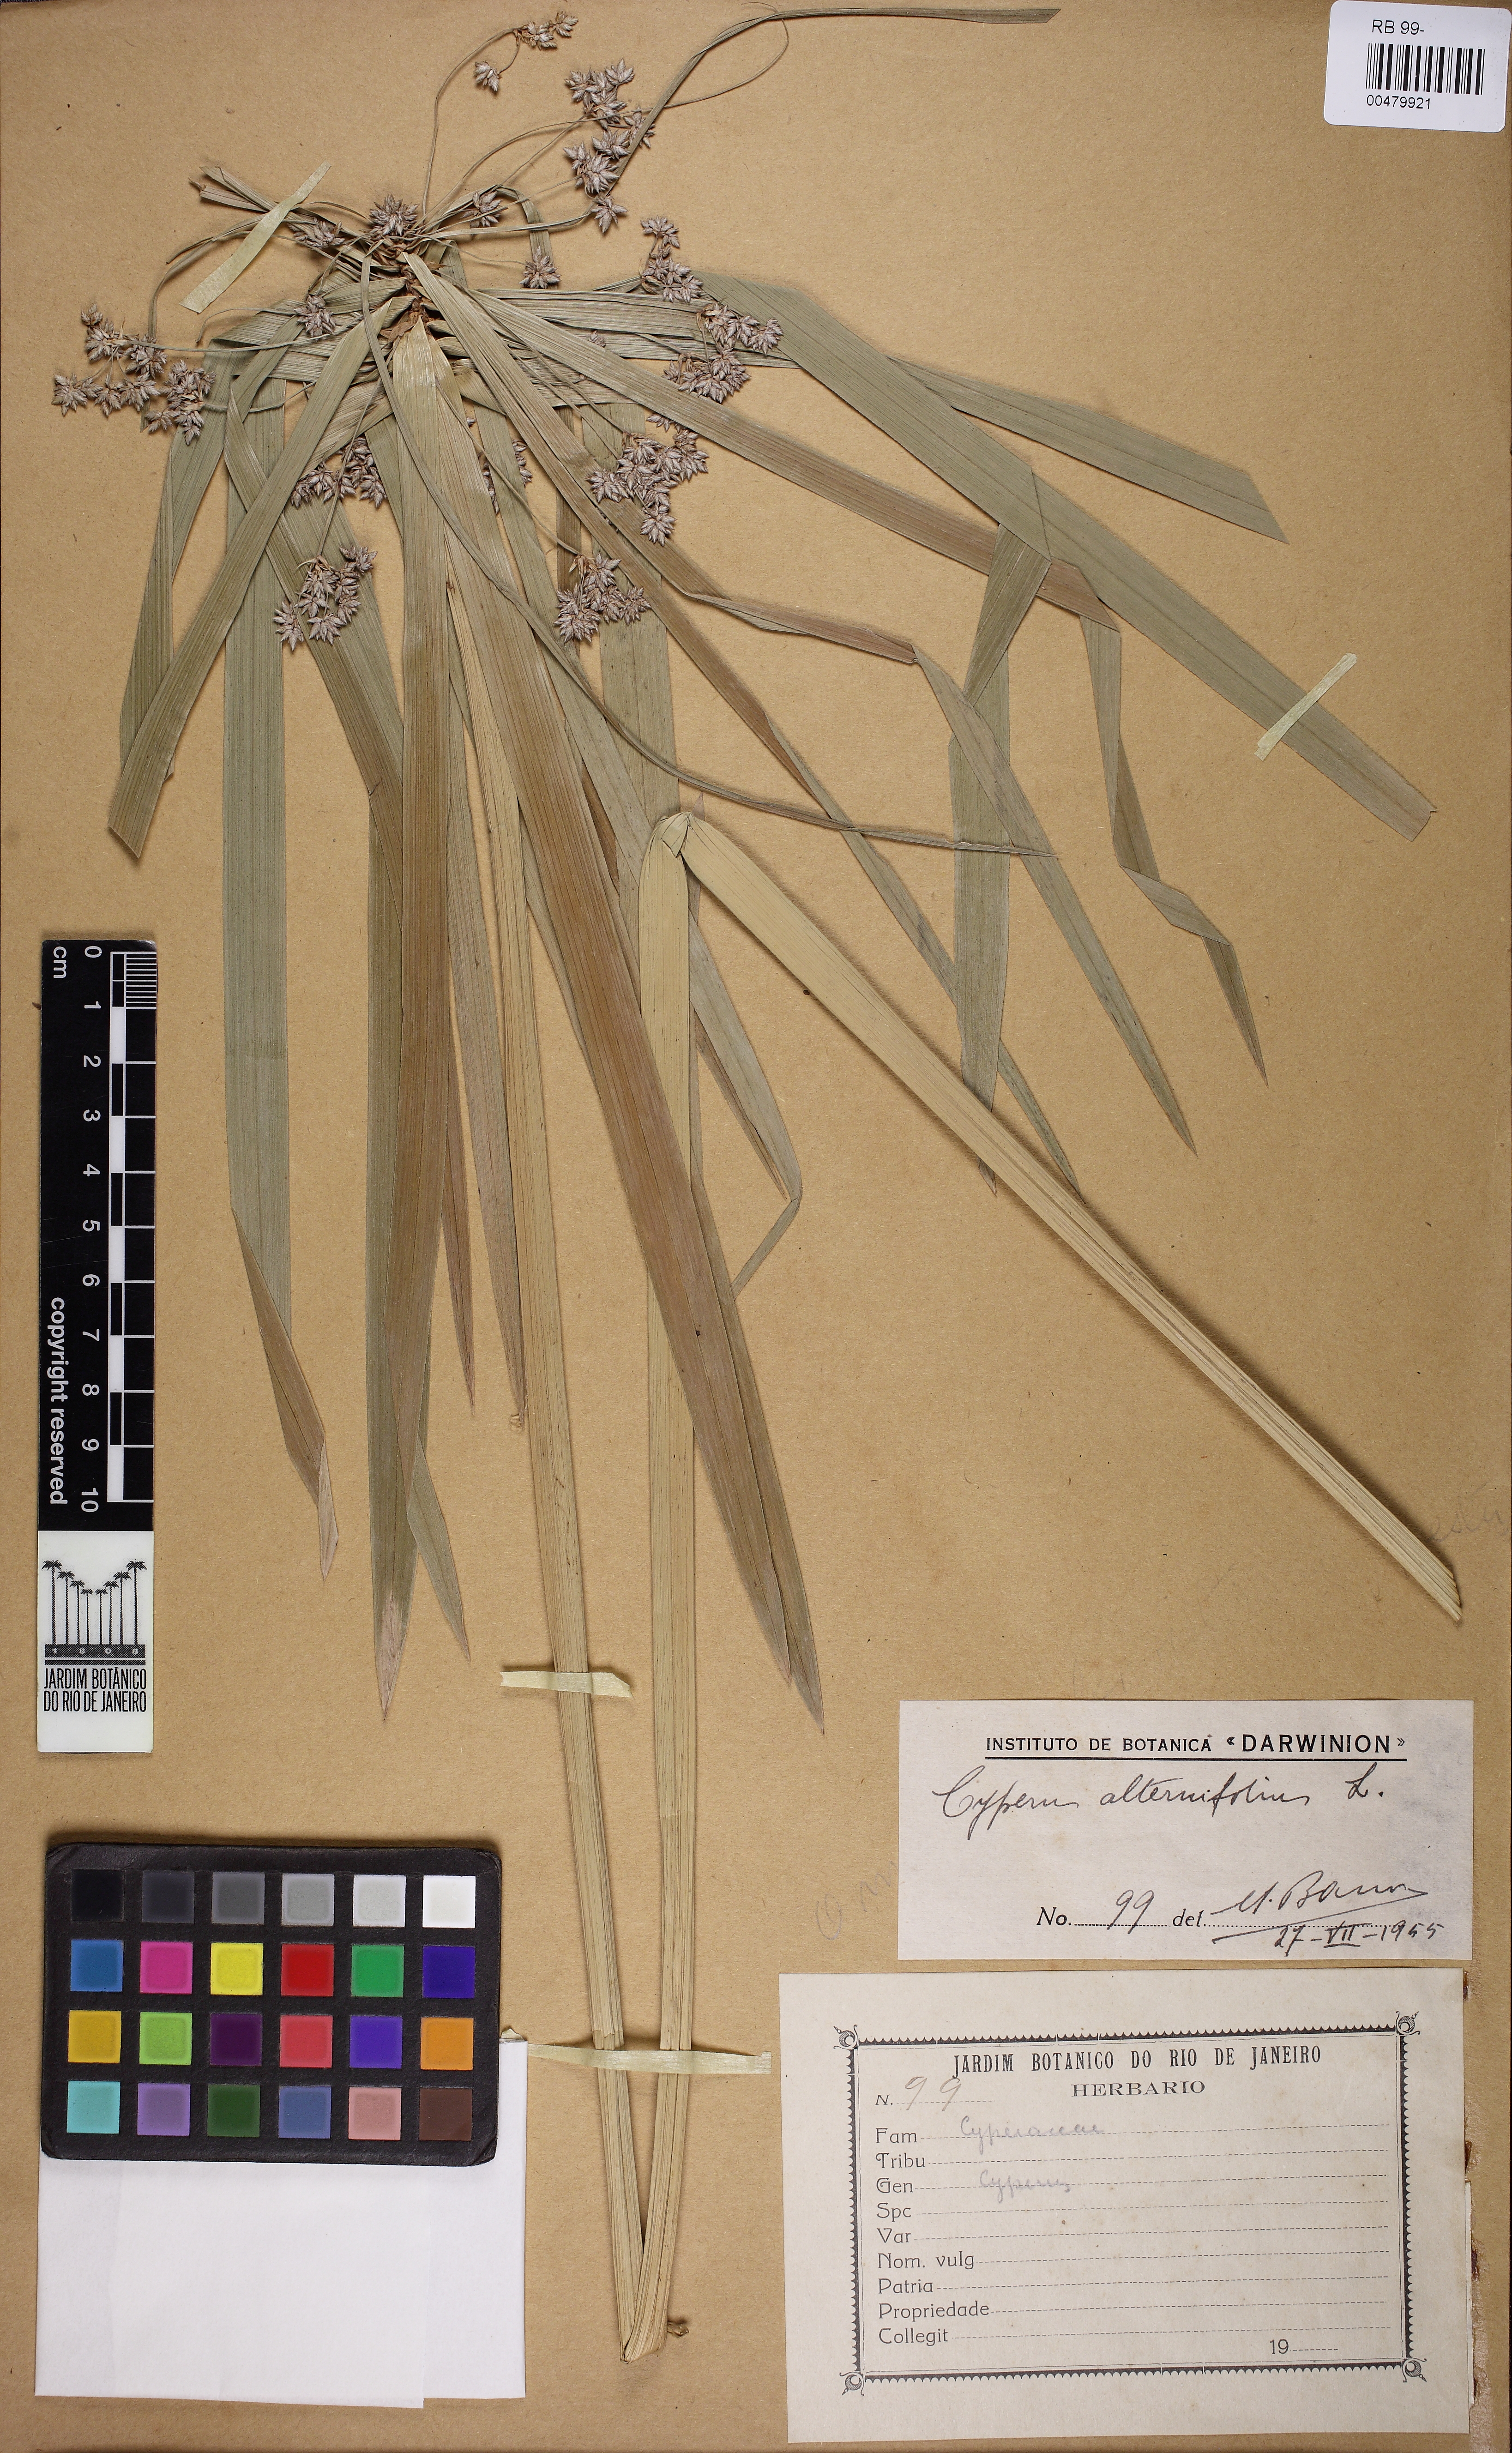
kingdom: Plantae
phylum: Tracheophyta
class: Liliopsida
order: Poales
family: Cyperaceae
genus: Cyperus
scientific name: Cyperus alterniflorus
